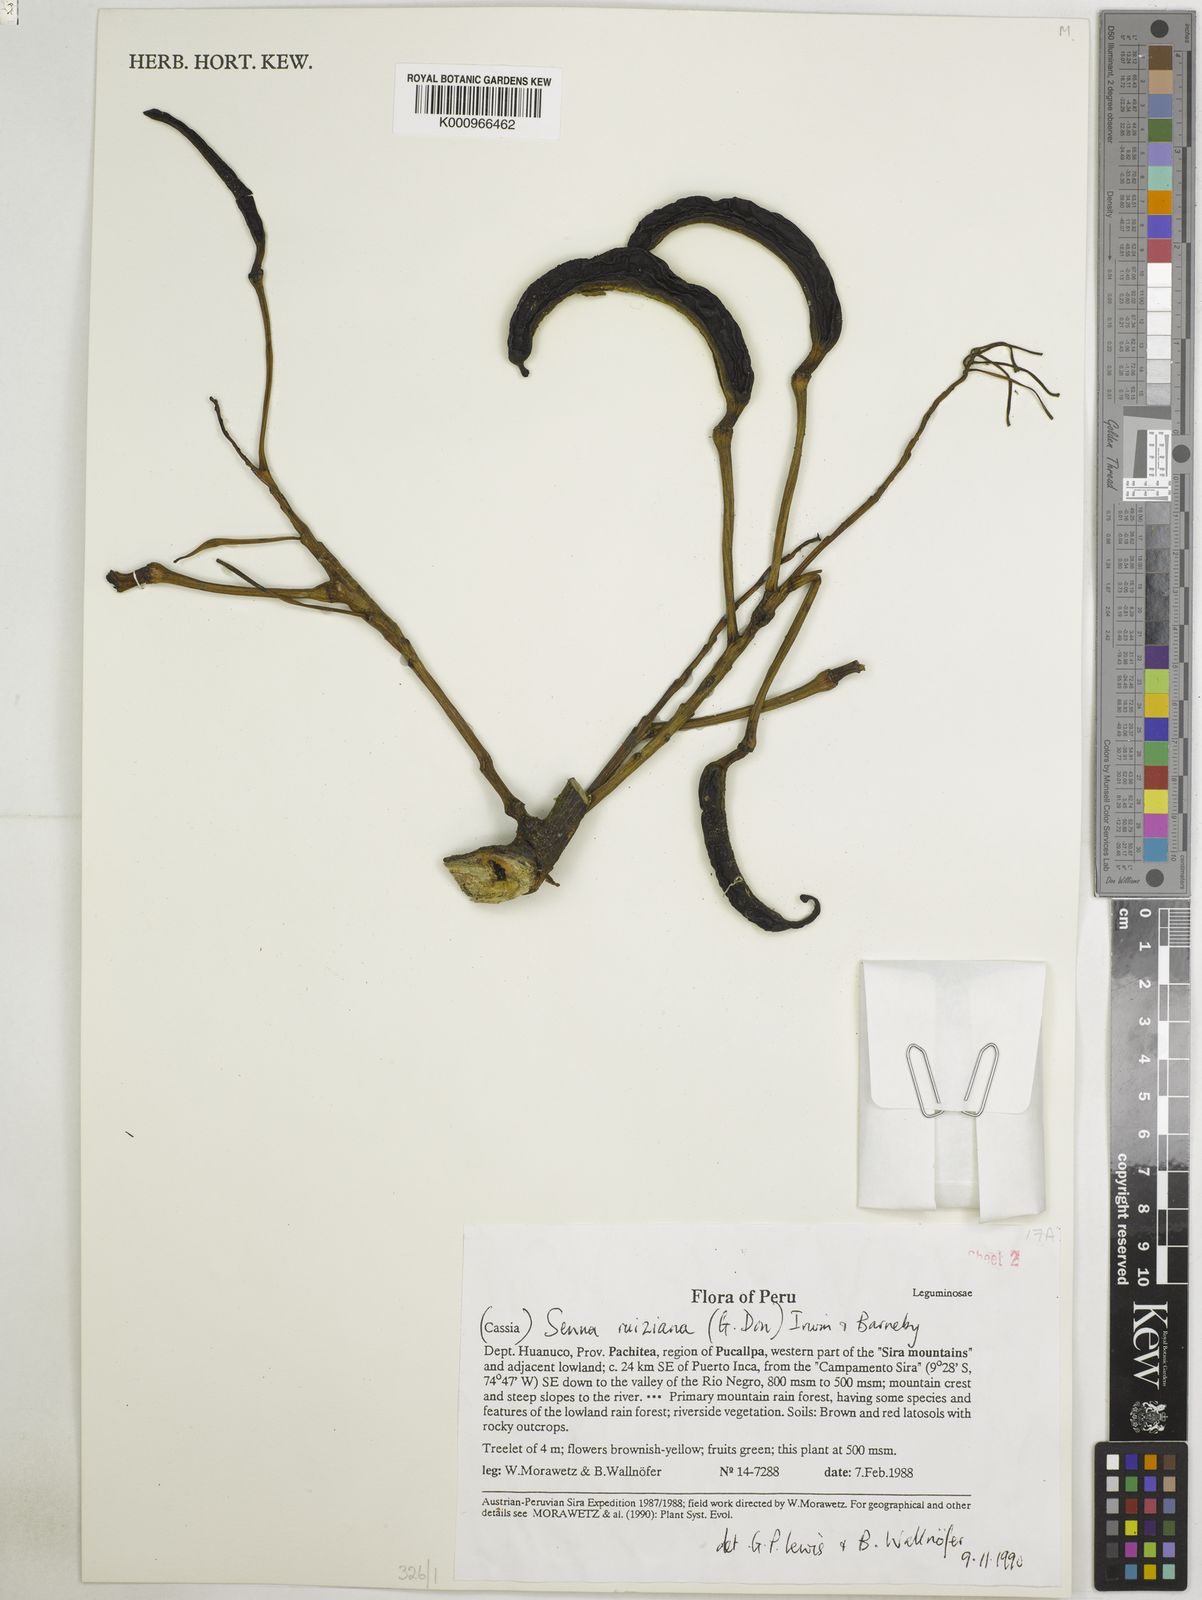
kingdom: Plantae
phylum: Tracheophyta
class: Magnoliopsida
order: Fabales
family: Fabaceae
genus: Senna
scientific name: Senna ruiziana
